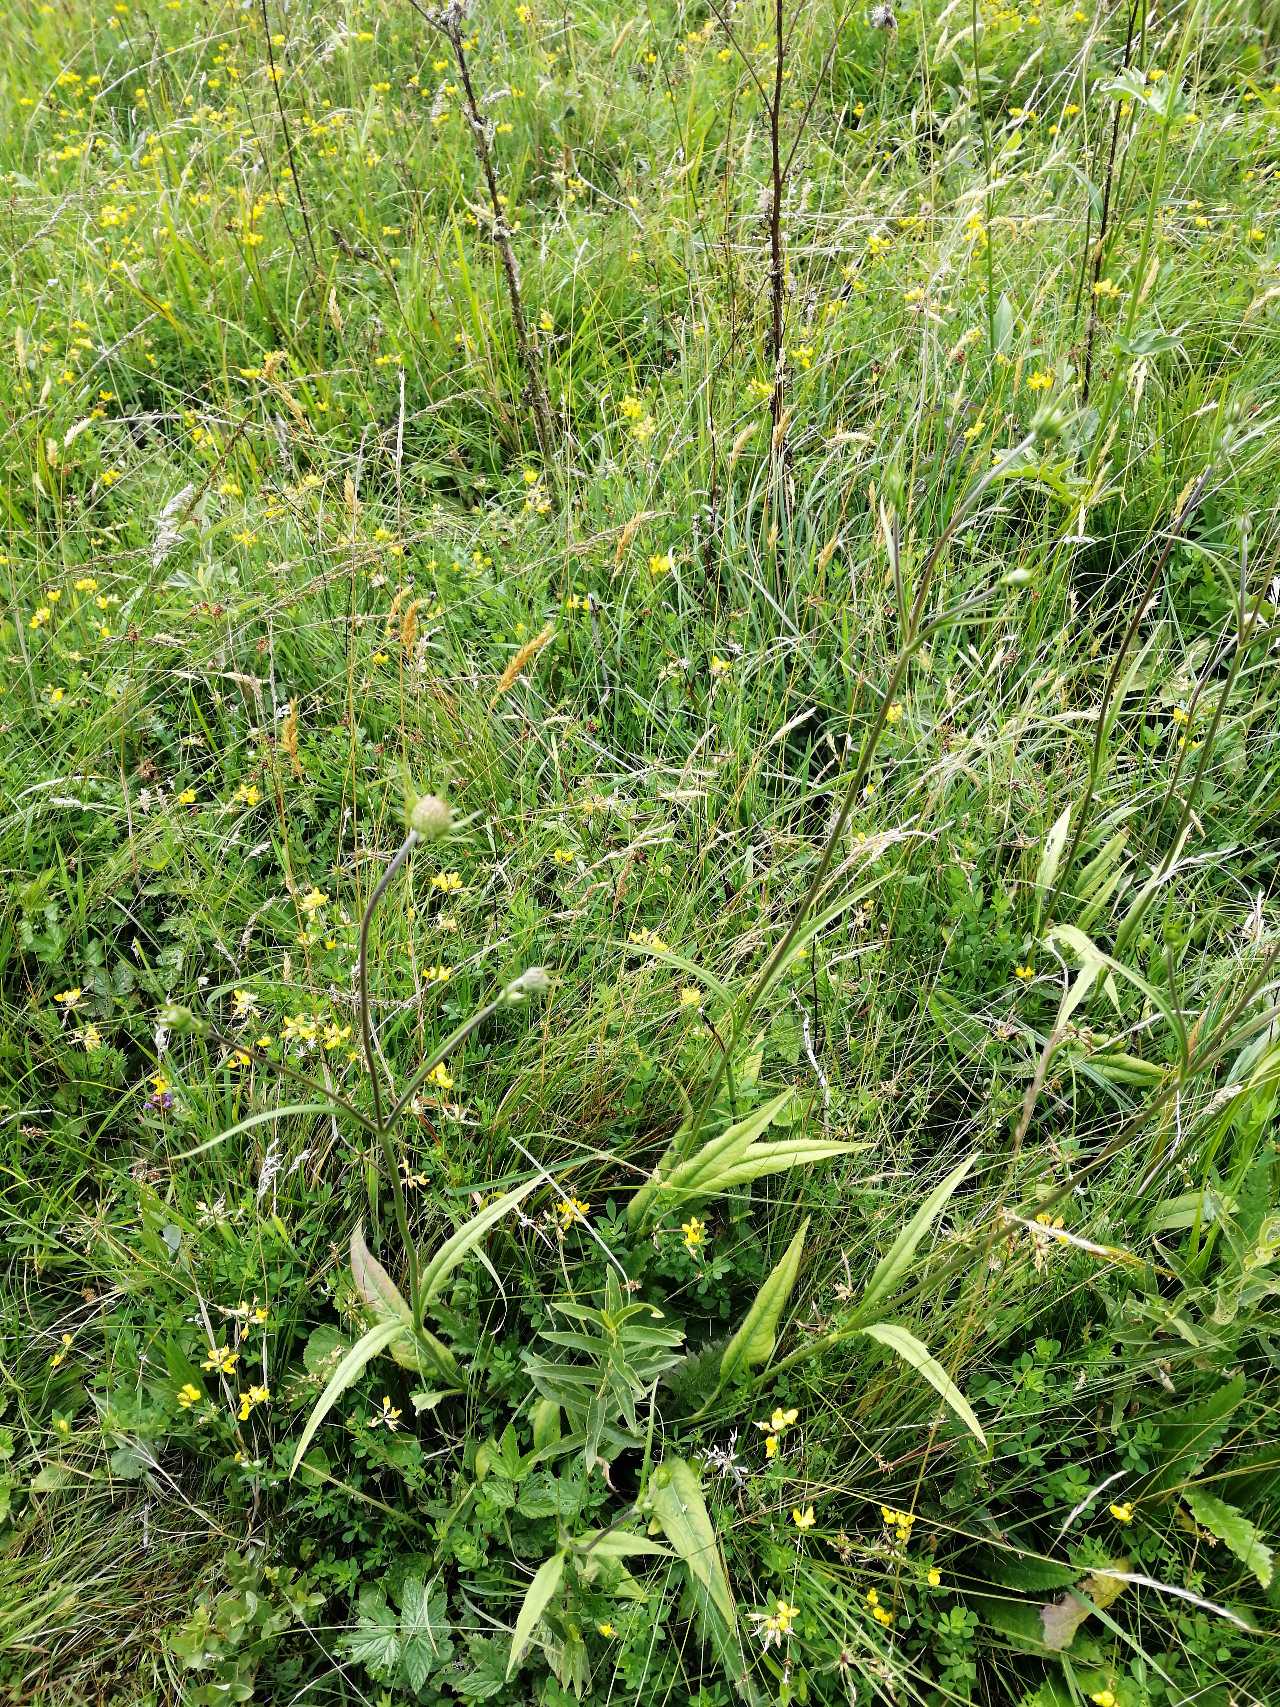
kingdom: Plantae
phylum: Tracheophyta
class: Magnoliopsida
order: Dipsacales
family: Caprifoliaceae
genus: Succisa
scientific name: Succisa pratensis
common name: Djævelsbid
